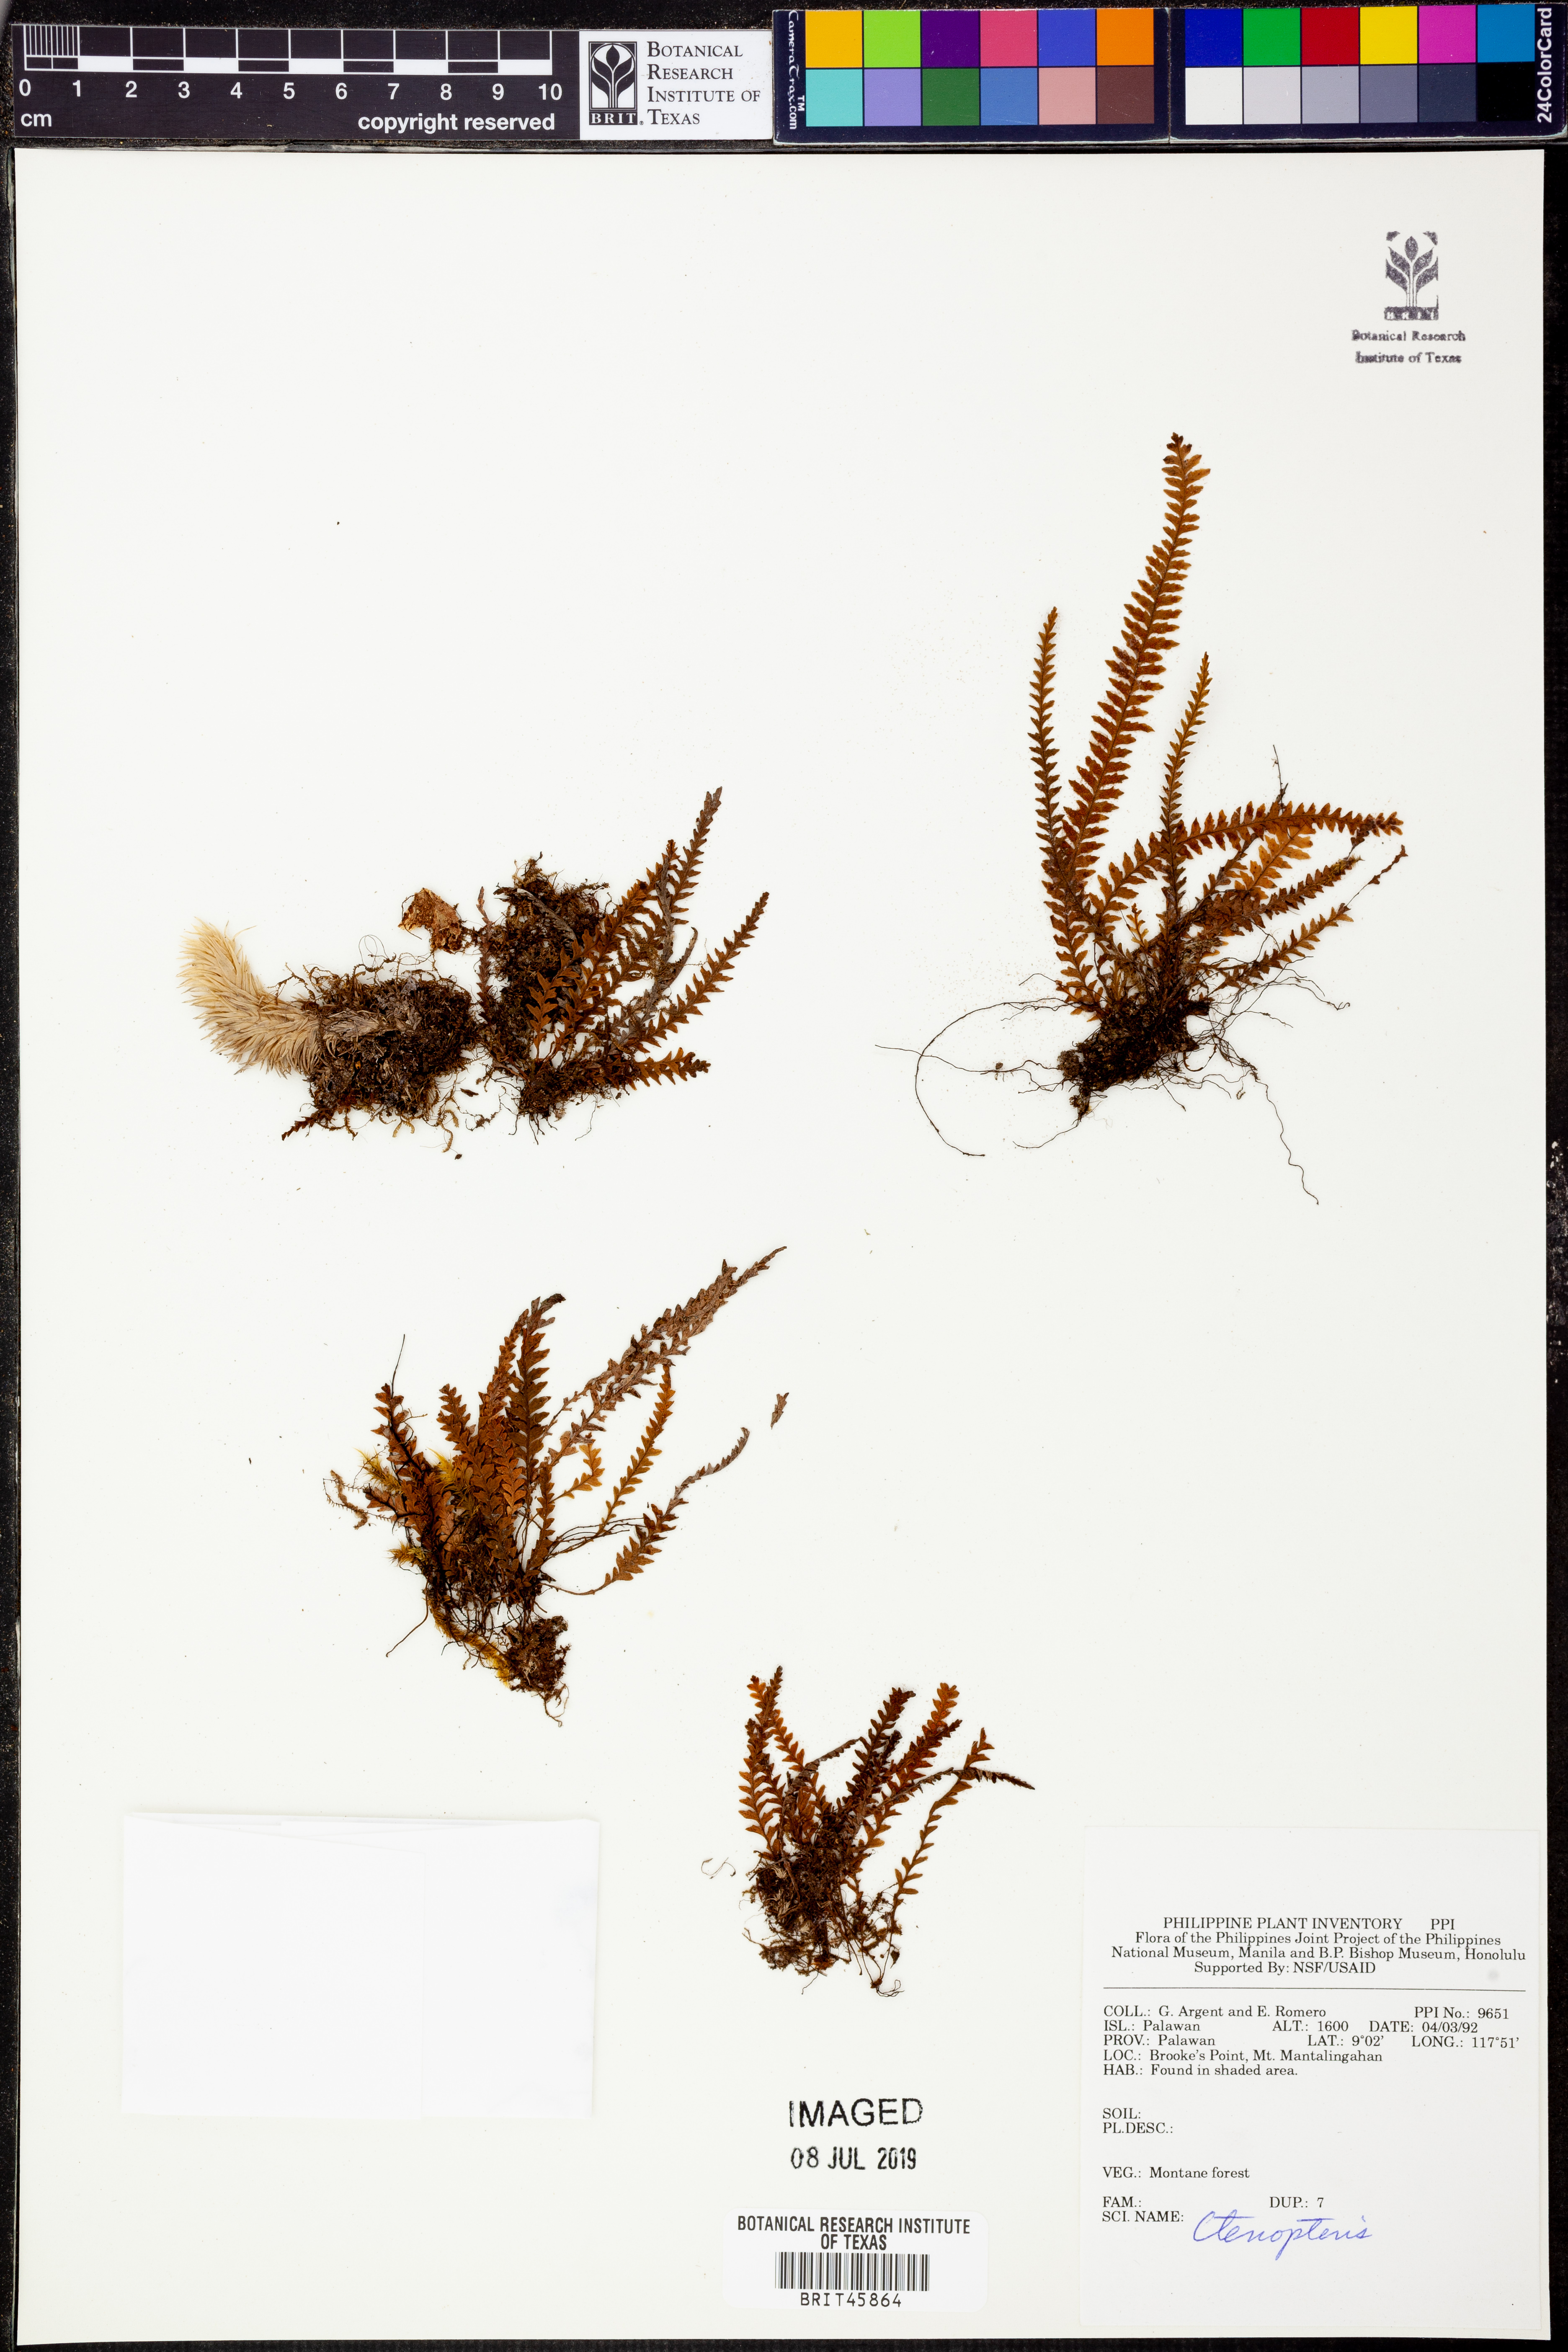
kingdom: Plantae
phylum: Tracheophyta
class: Polypodiopsida
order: Polypodiales
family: Polypodiaceae
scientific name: Polypodiaceae
